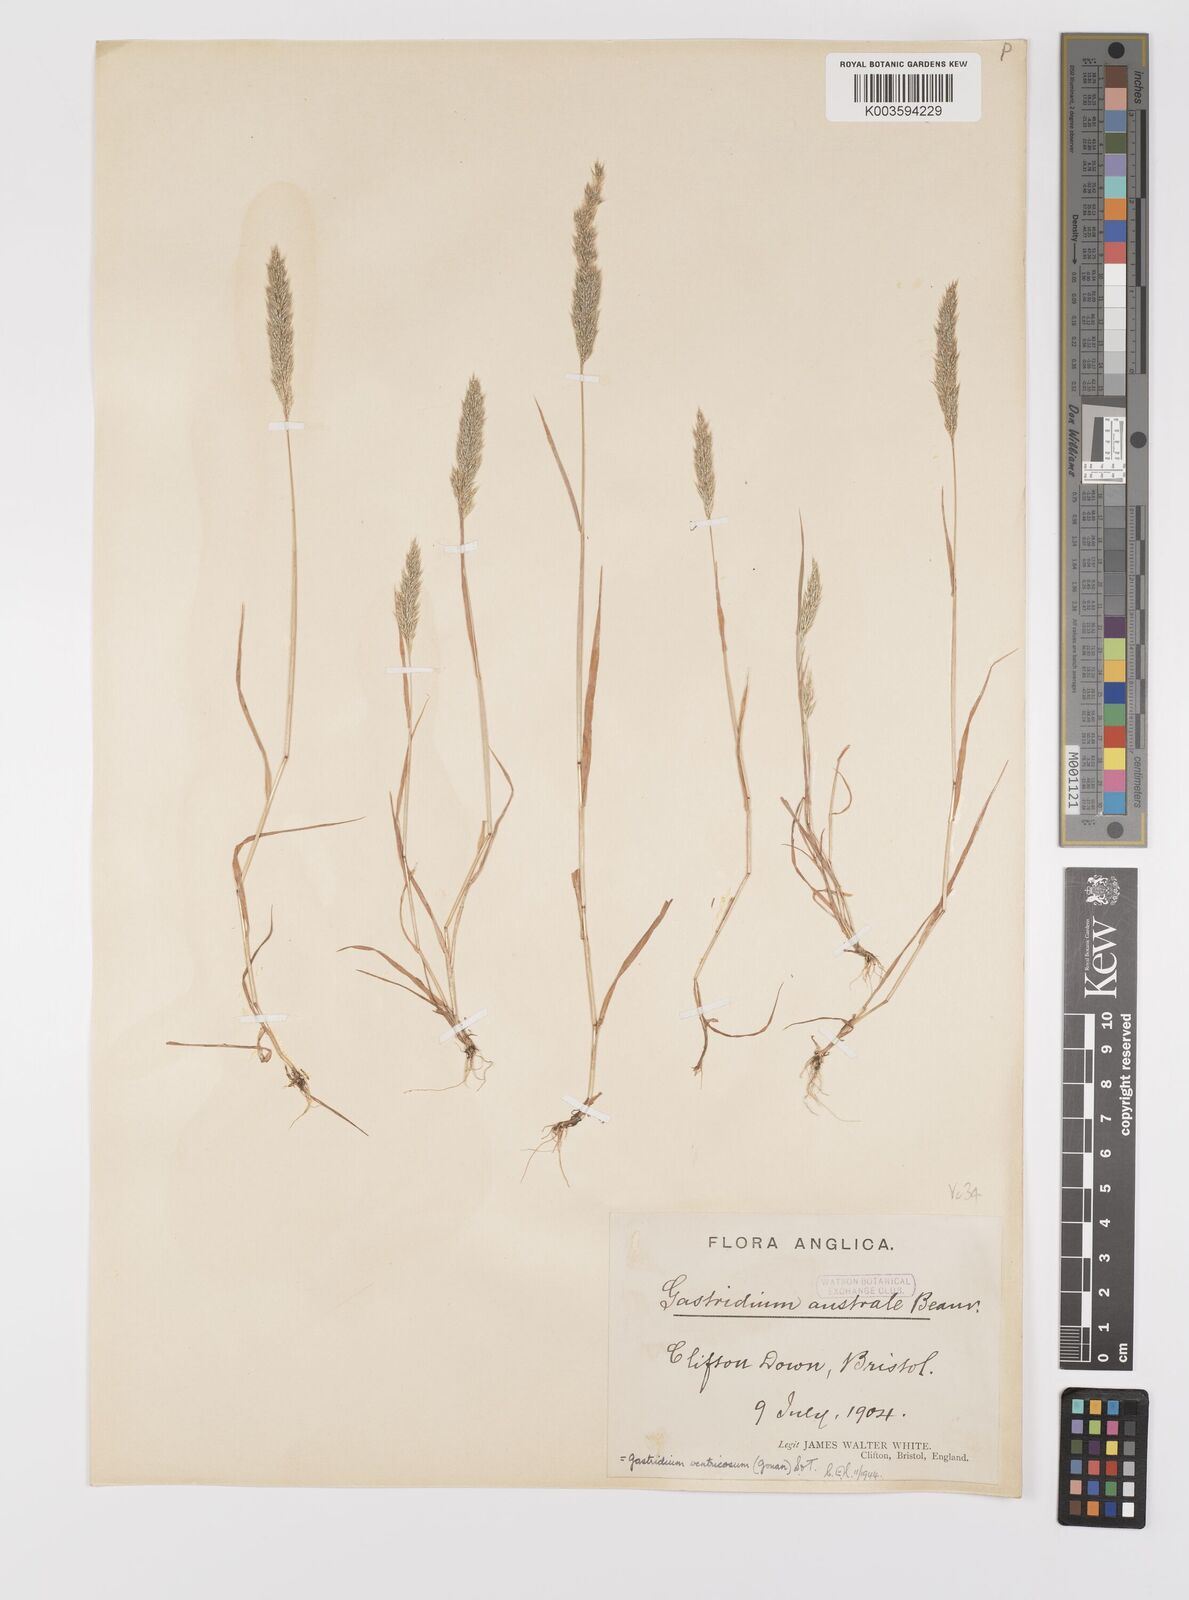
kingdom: Plantae
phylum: Tracheophyta
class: Liliopsida
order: Poales
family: Poaceae
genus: Gastridium
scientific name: Gastridium ventricosum
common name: Nit-grass
